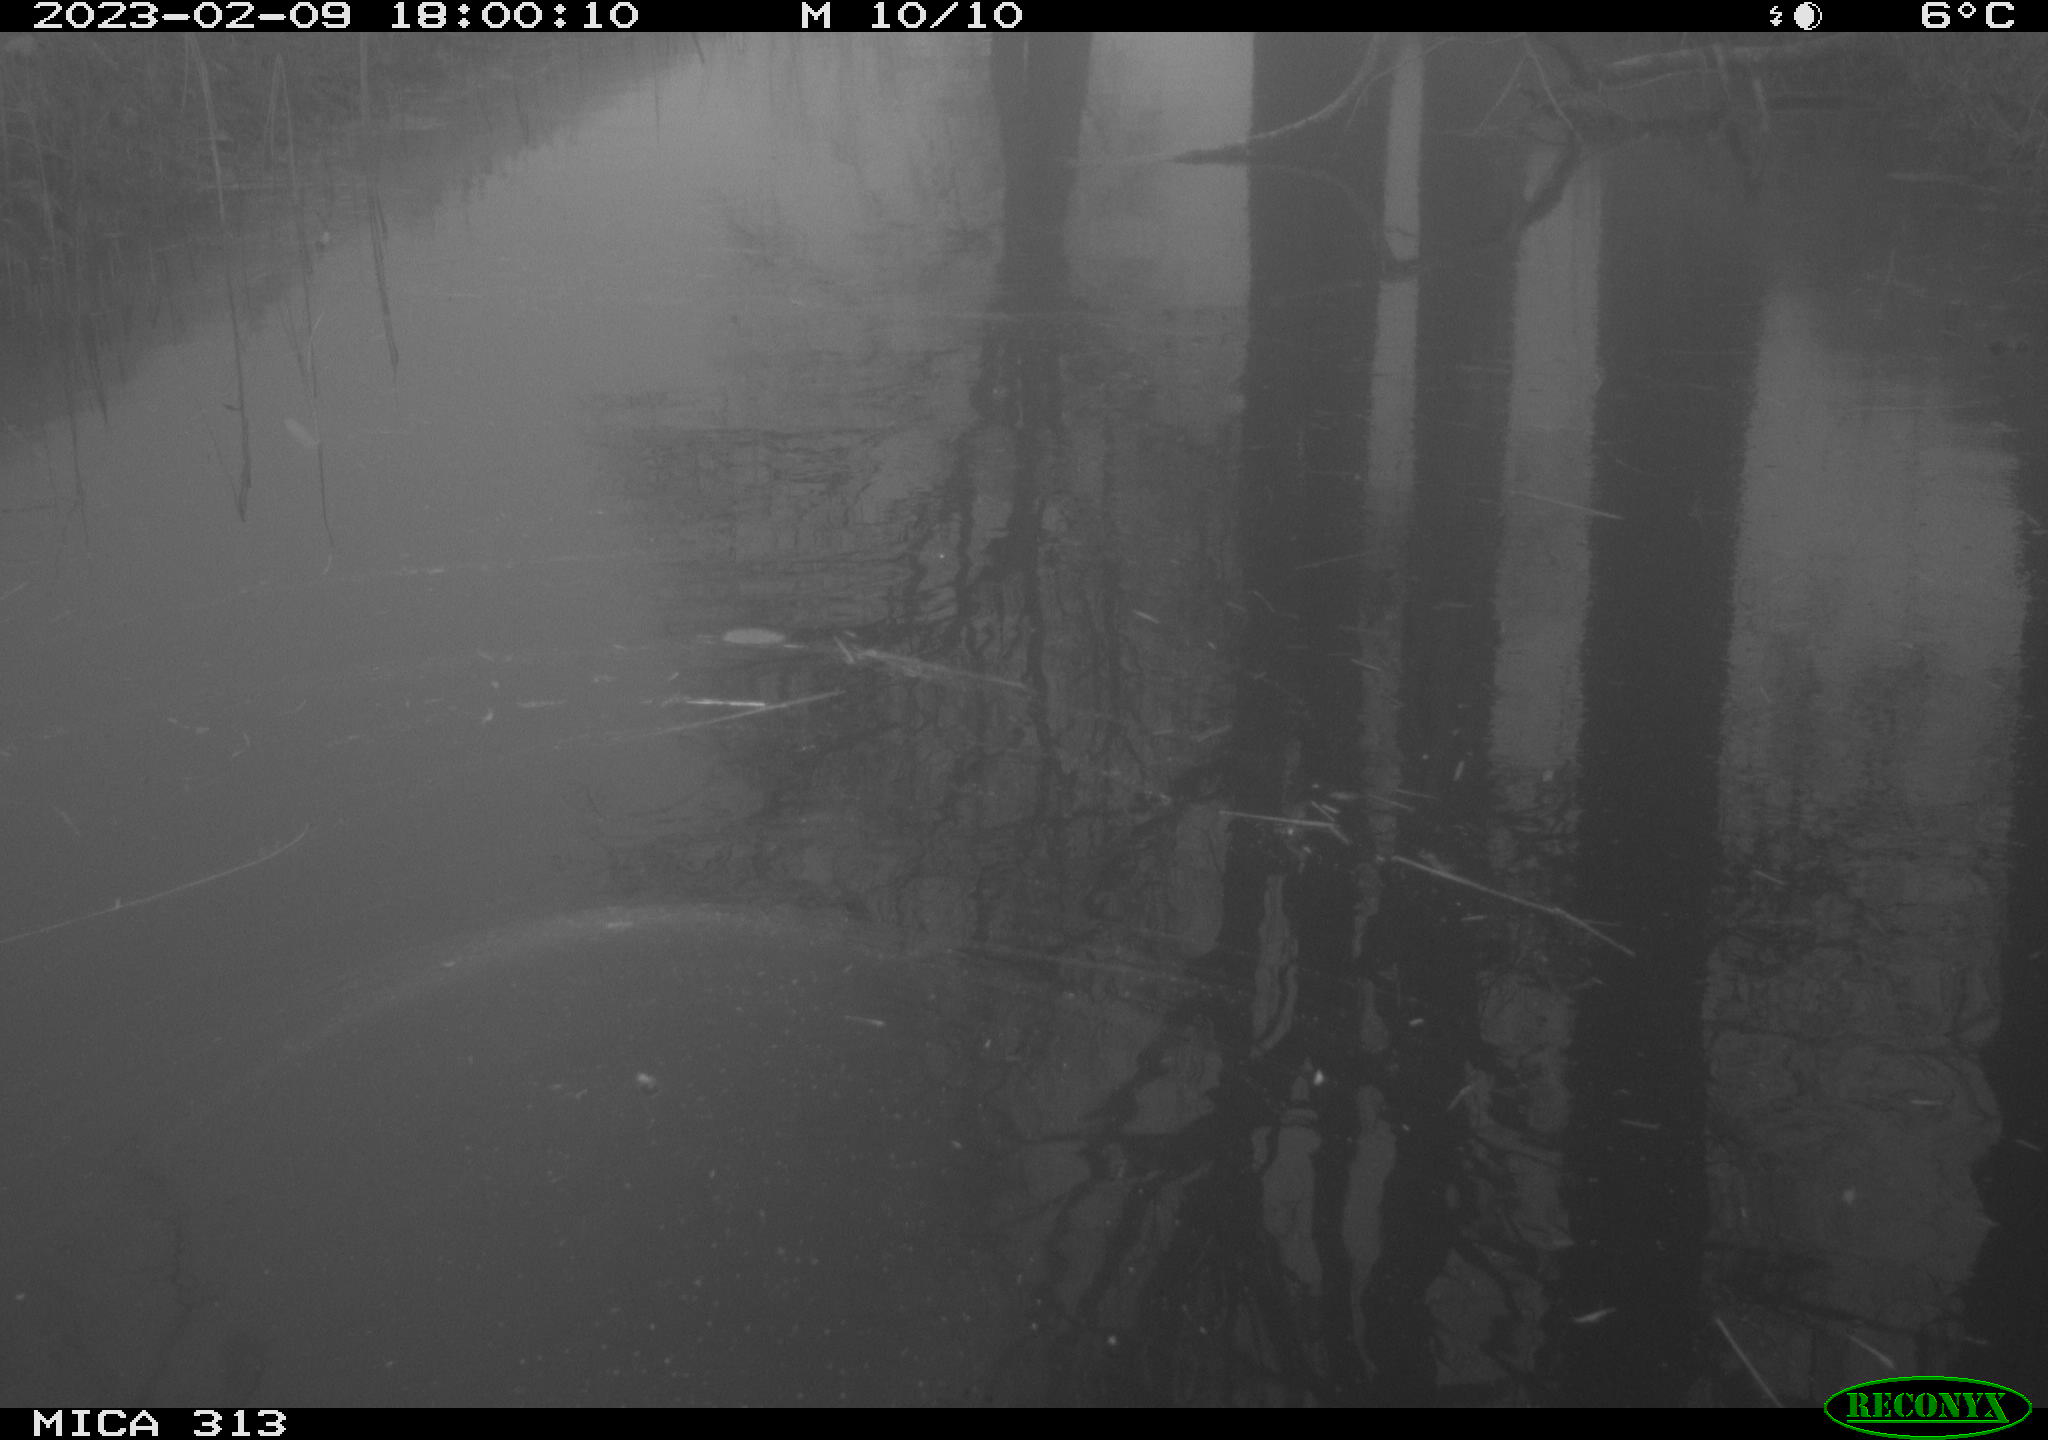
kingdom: Animalia
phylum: Chordata
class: Aves
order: Gruiformes
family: Rallidae
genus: Fulica
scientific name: Fulica atra
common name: Eurasian coot
